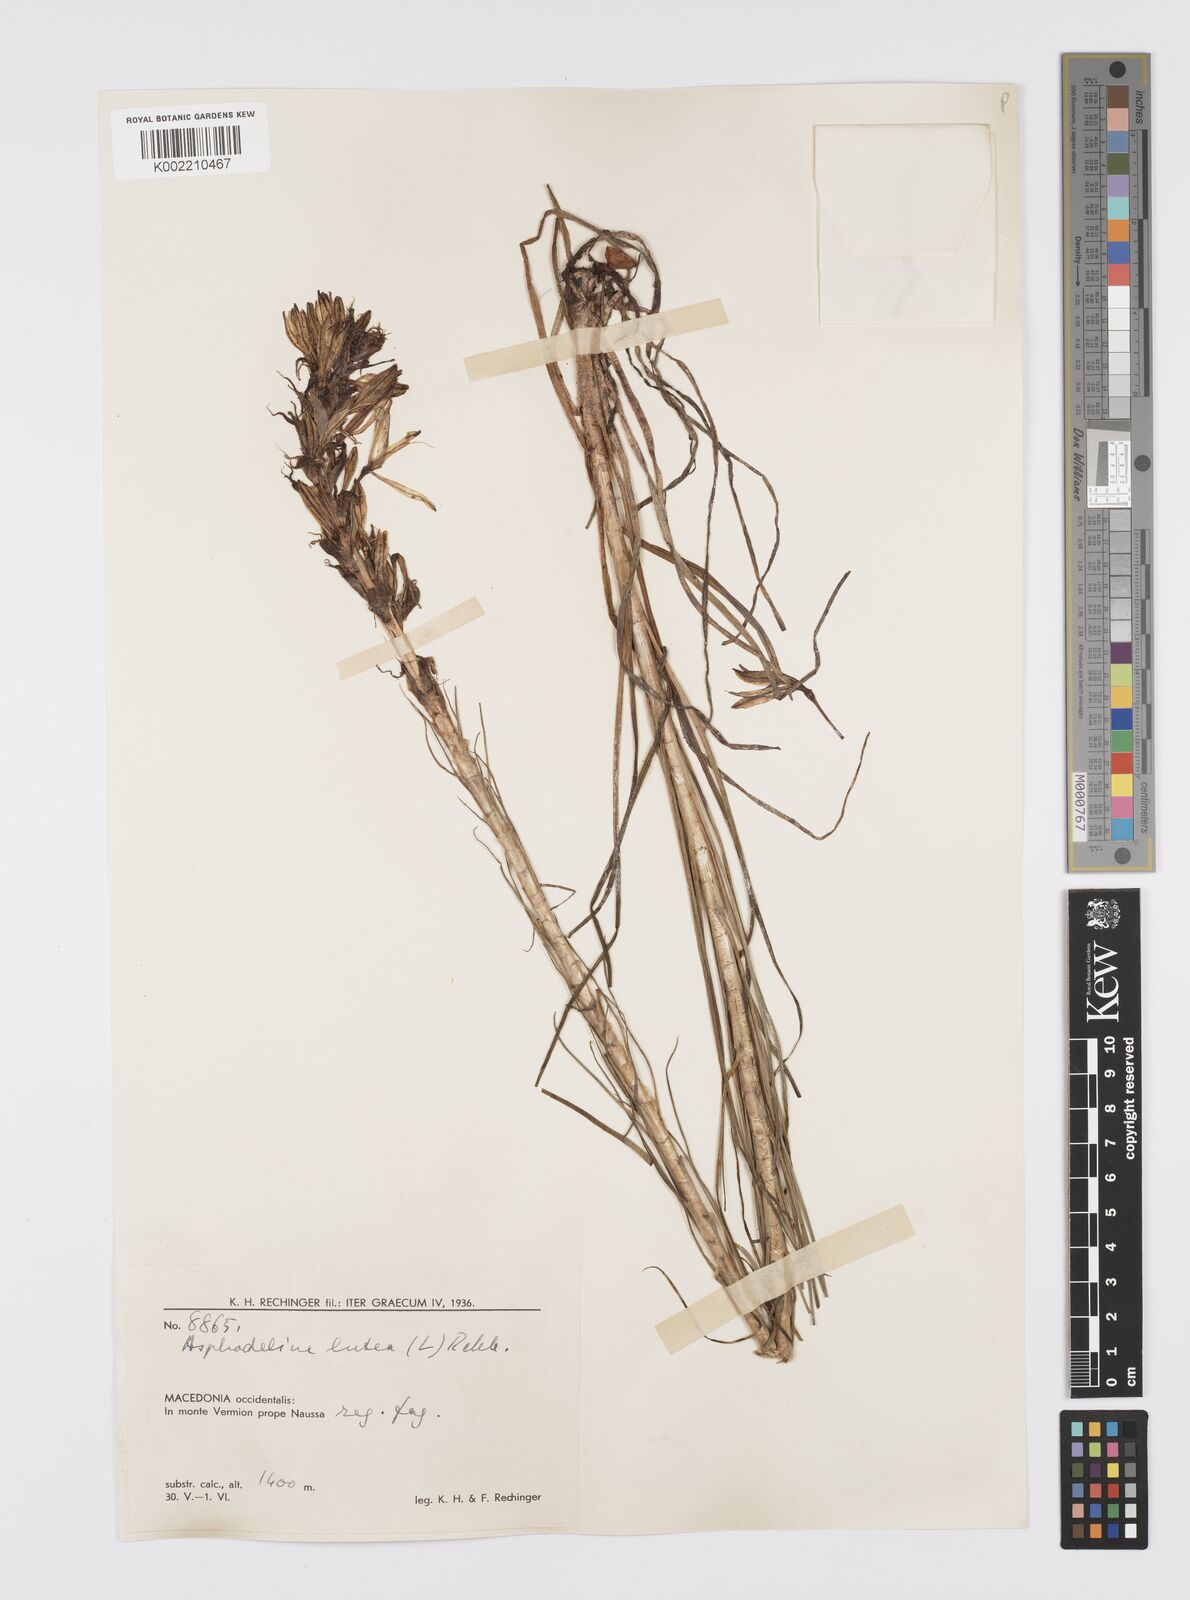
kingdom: Plantae
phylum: Tracheophyta
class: Liliopsida
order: Asparagales
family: Asphodelaceae
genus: Asphodeline
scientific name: Asphodeline lutea
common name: Yellow asphodel
